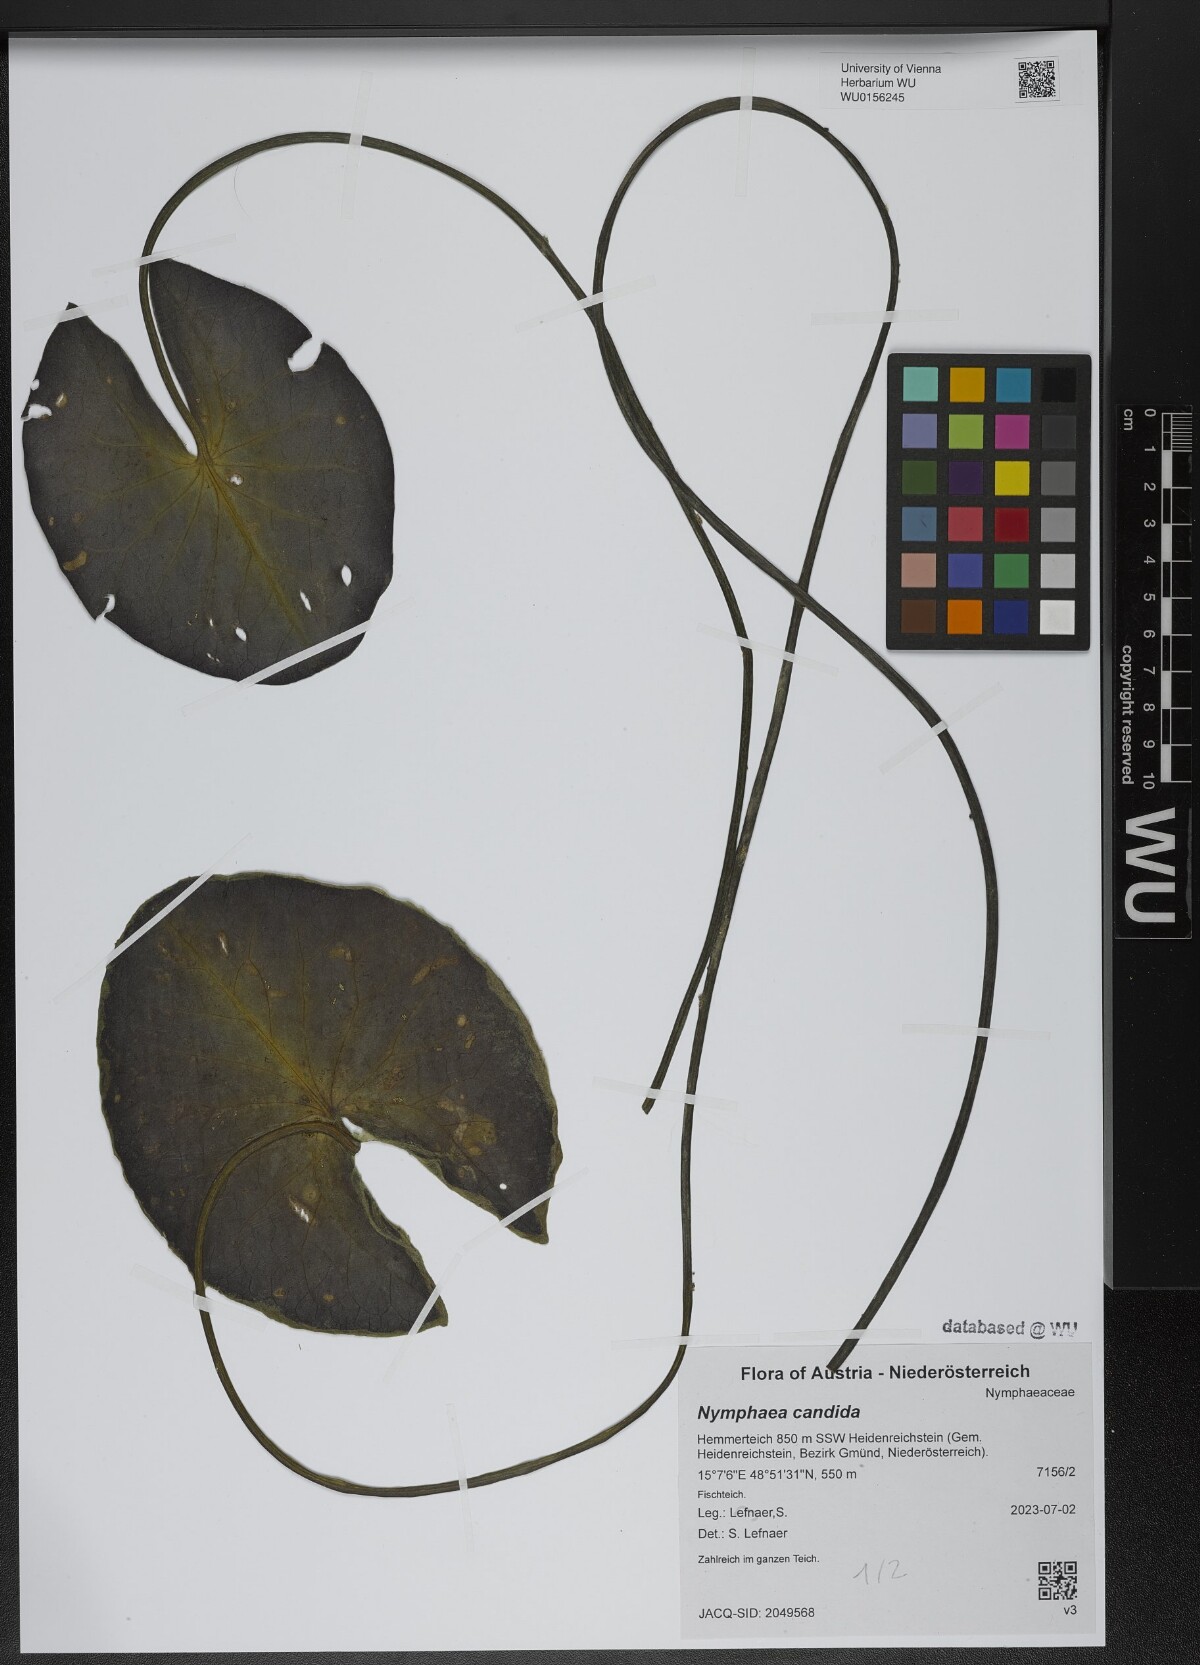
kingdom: Plantae
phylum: Tracheophyta
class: Magnoliopsida
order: Nymphaeales
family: Nymphaeaceae
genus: Nymphaea
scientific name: Nymphaea candida
